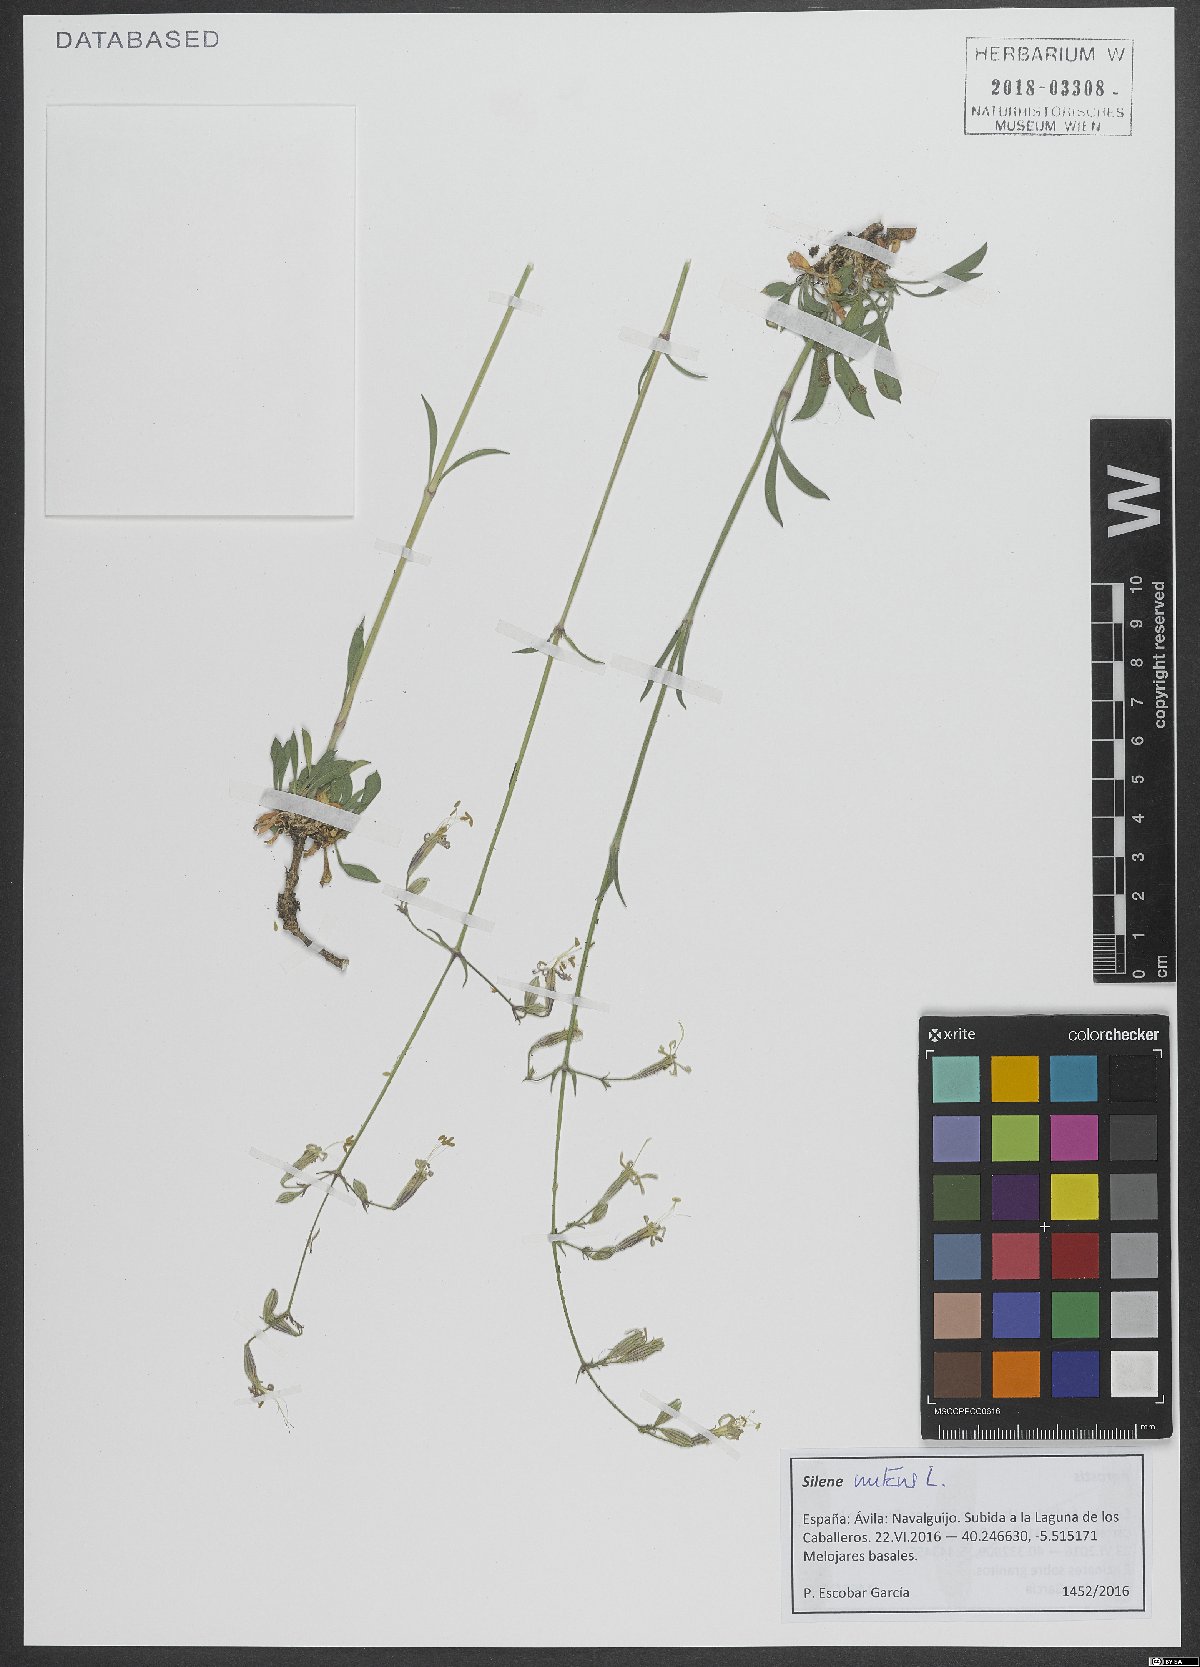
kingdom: Plantae
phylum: Tracheophyta
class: Magnoliopsida
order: Caryophyllales
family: Caryophyllaceae
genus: Silene
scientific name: Silene nutans
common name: Nottingham catchfly
